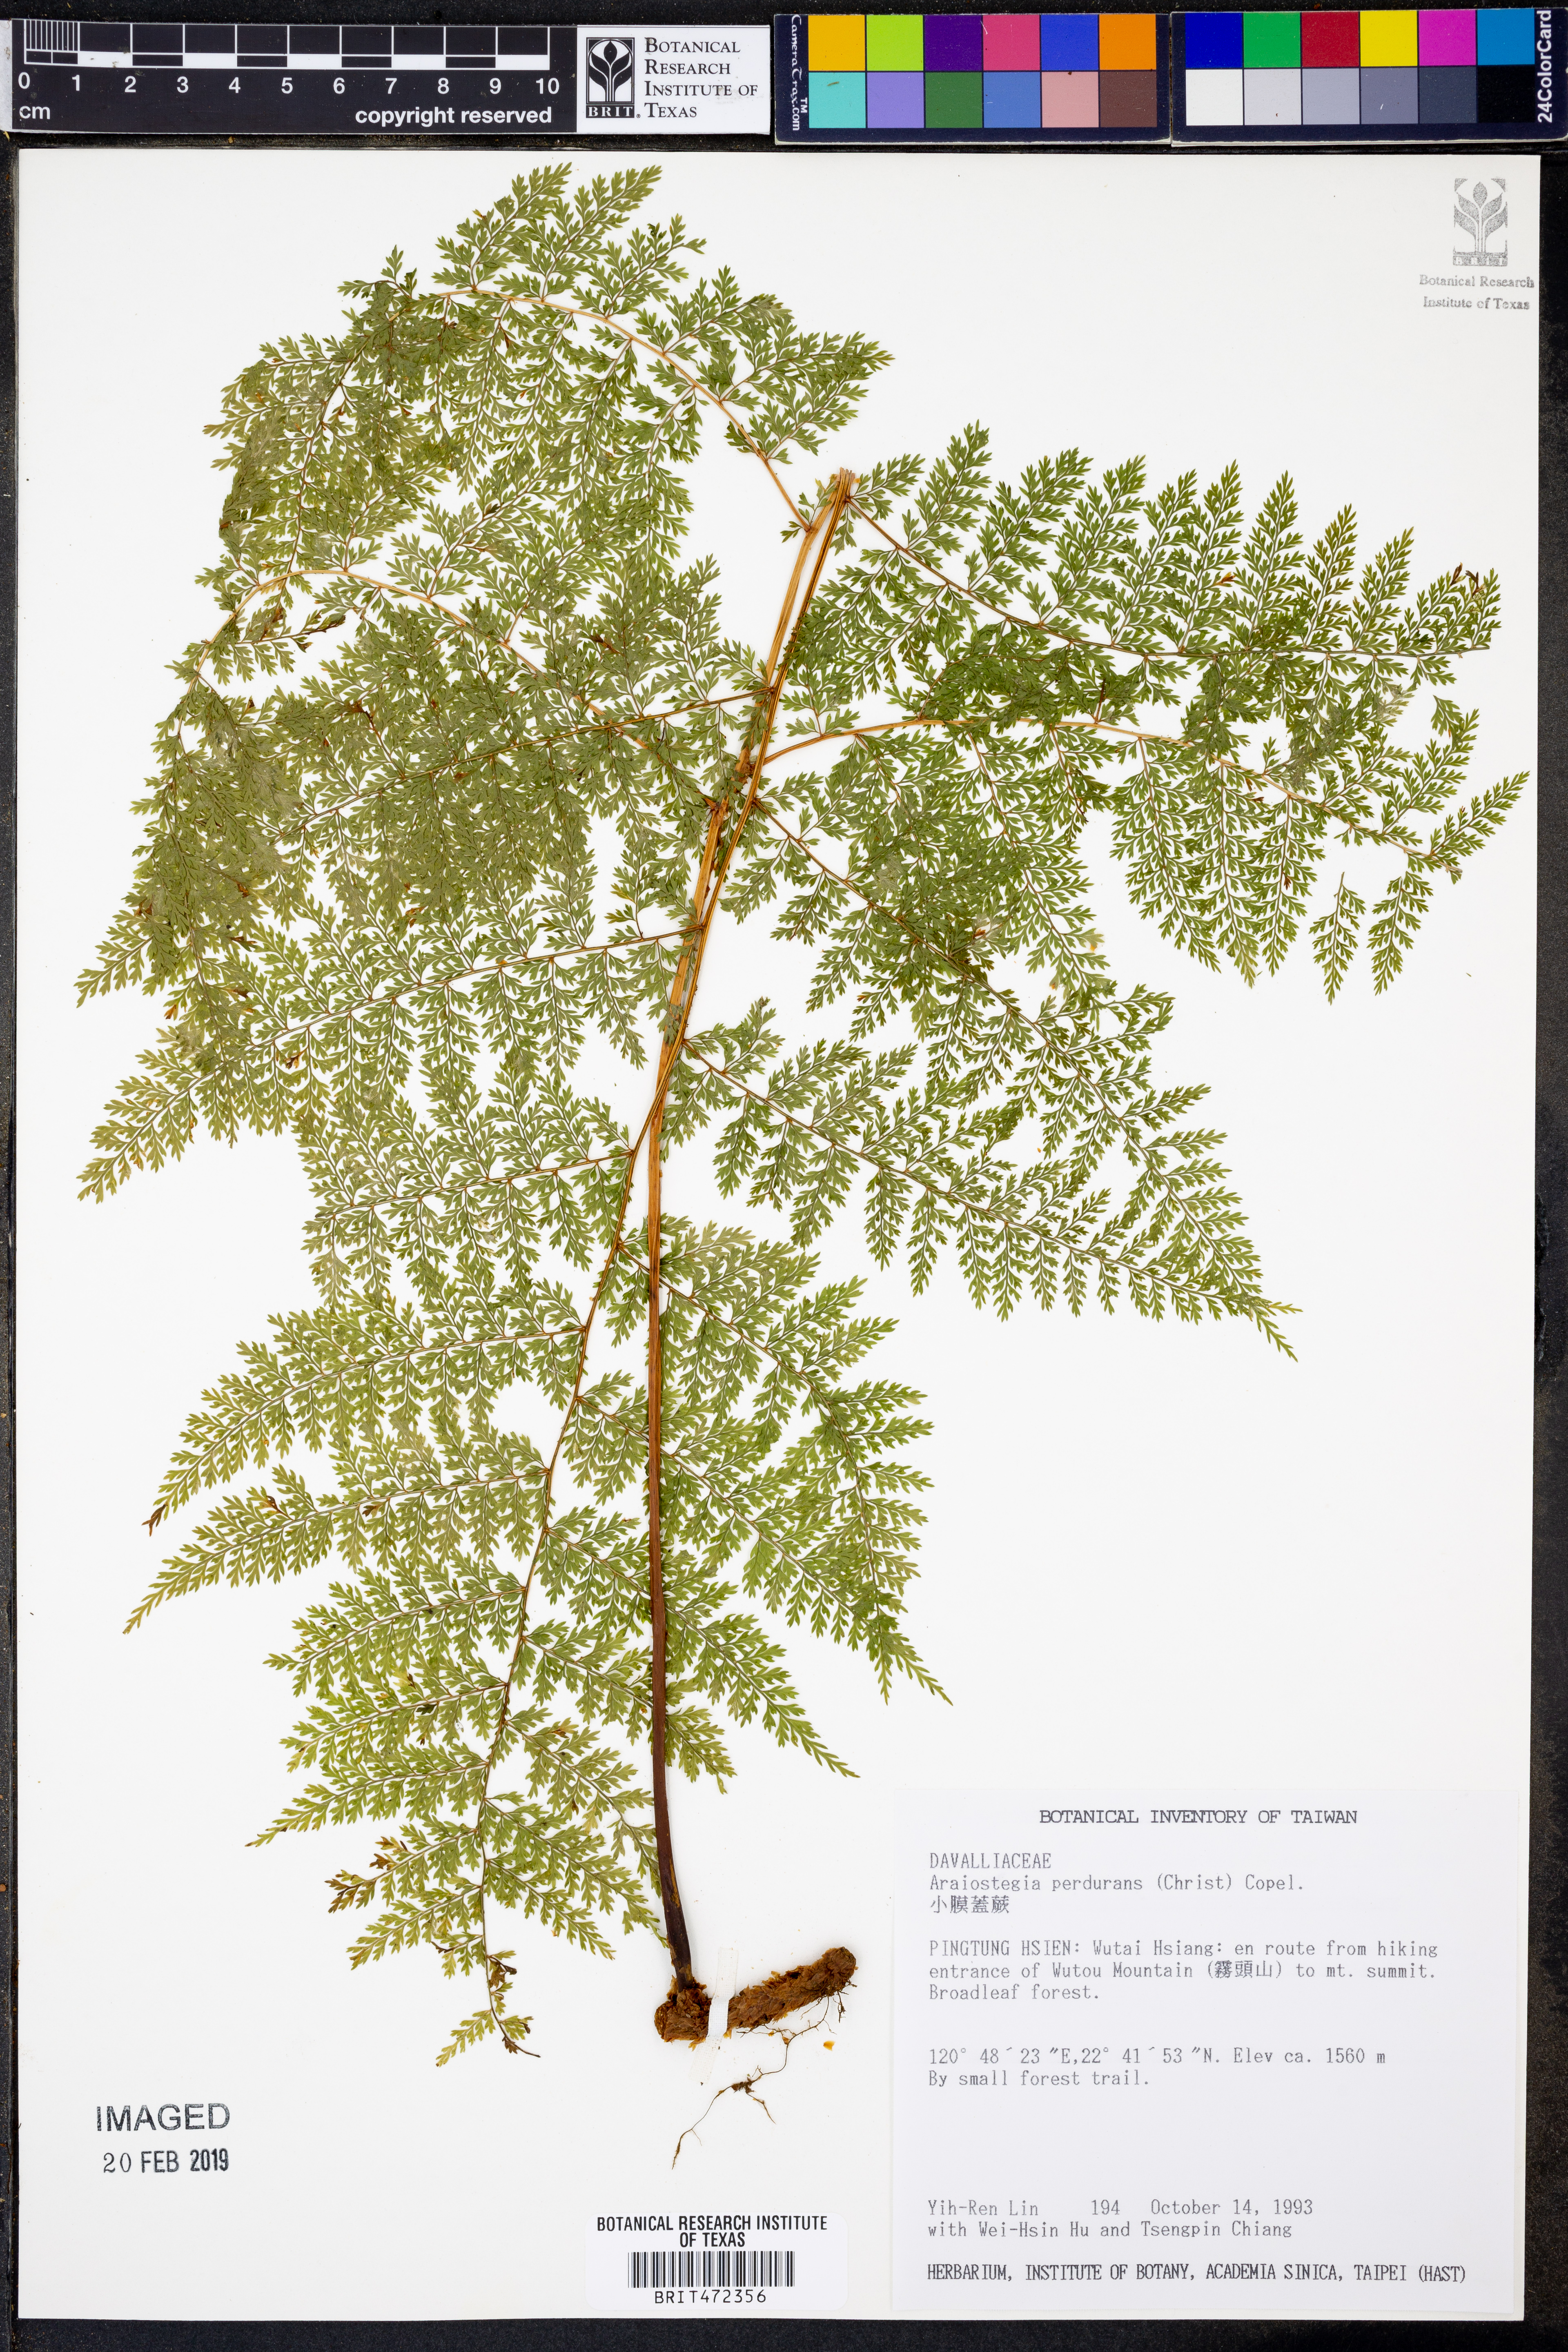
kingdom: Plantae
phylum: Tracheophyta
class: Polypodiopsida
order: Polypodiales
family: Davalliaceae
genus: Davallia
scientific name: Davallia perdurans
